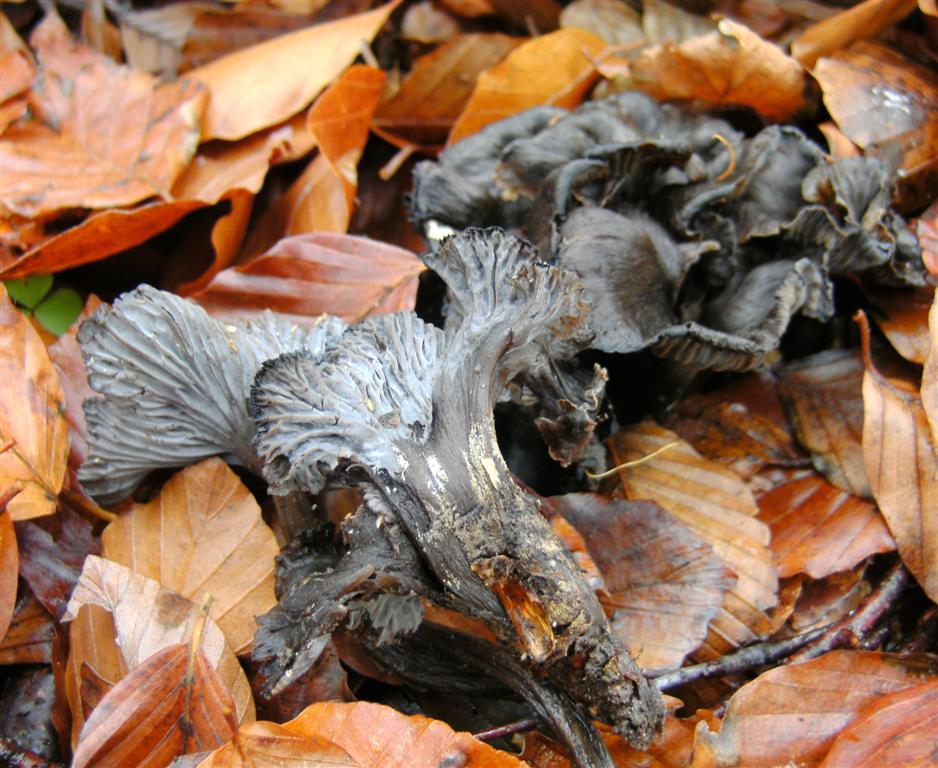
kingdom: Fungi
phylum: Basidiomycota
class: Agaricomycetes
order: Cantharellales
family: Hydnaceae
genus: Cantharellus
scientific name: Cantharellus cinereus
